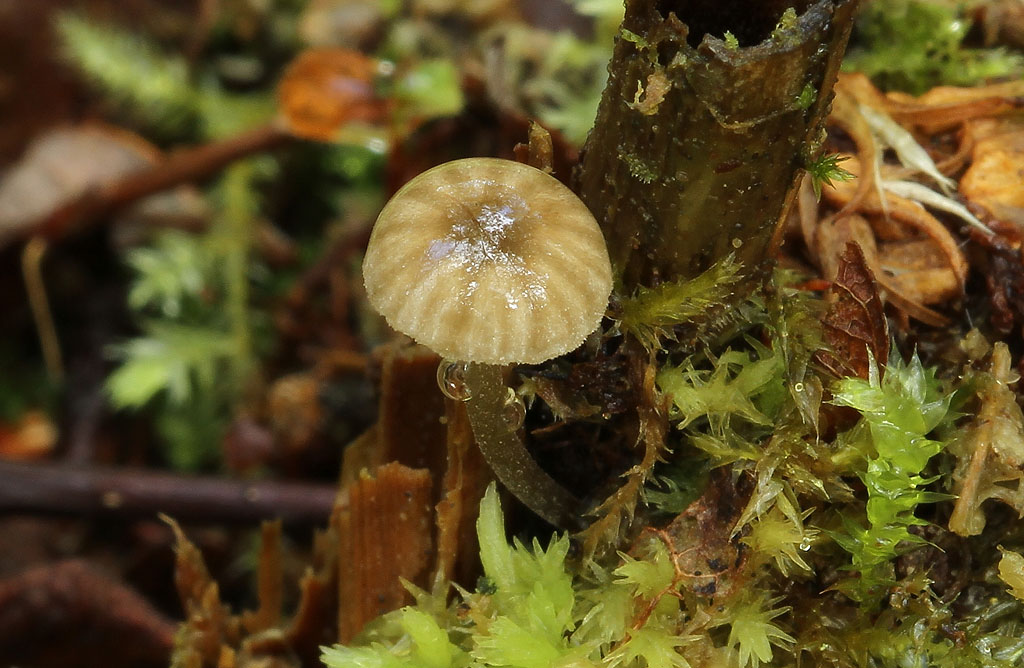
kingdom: Fungi
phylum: Basidiomycota
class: Agaricomycetes
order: Agaricales
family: Entolomataceae
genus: Entoloma
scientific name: Entoloma rhodocylix
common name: fjernbladet rødblad
